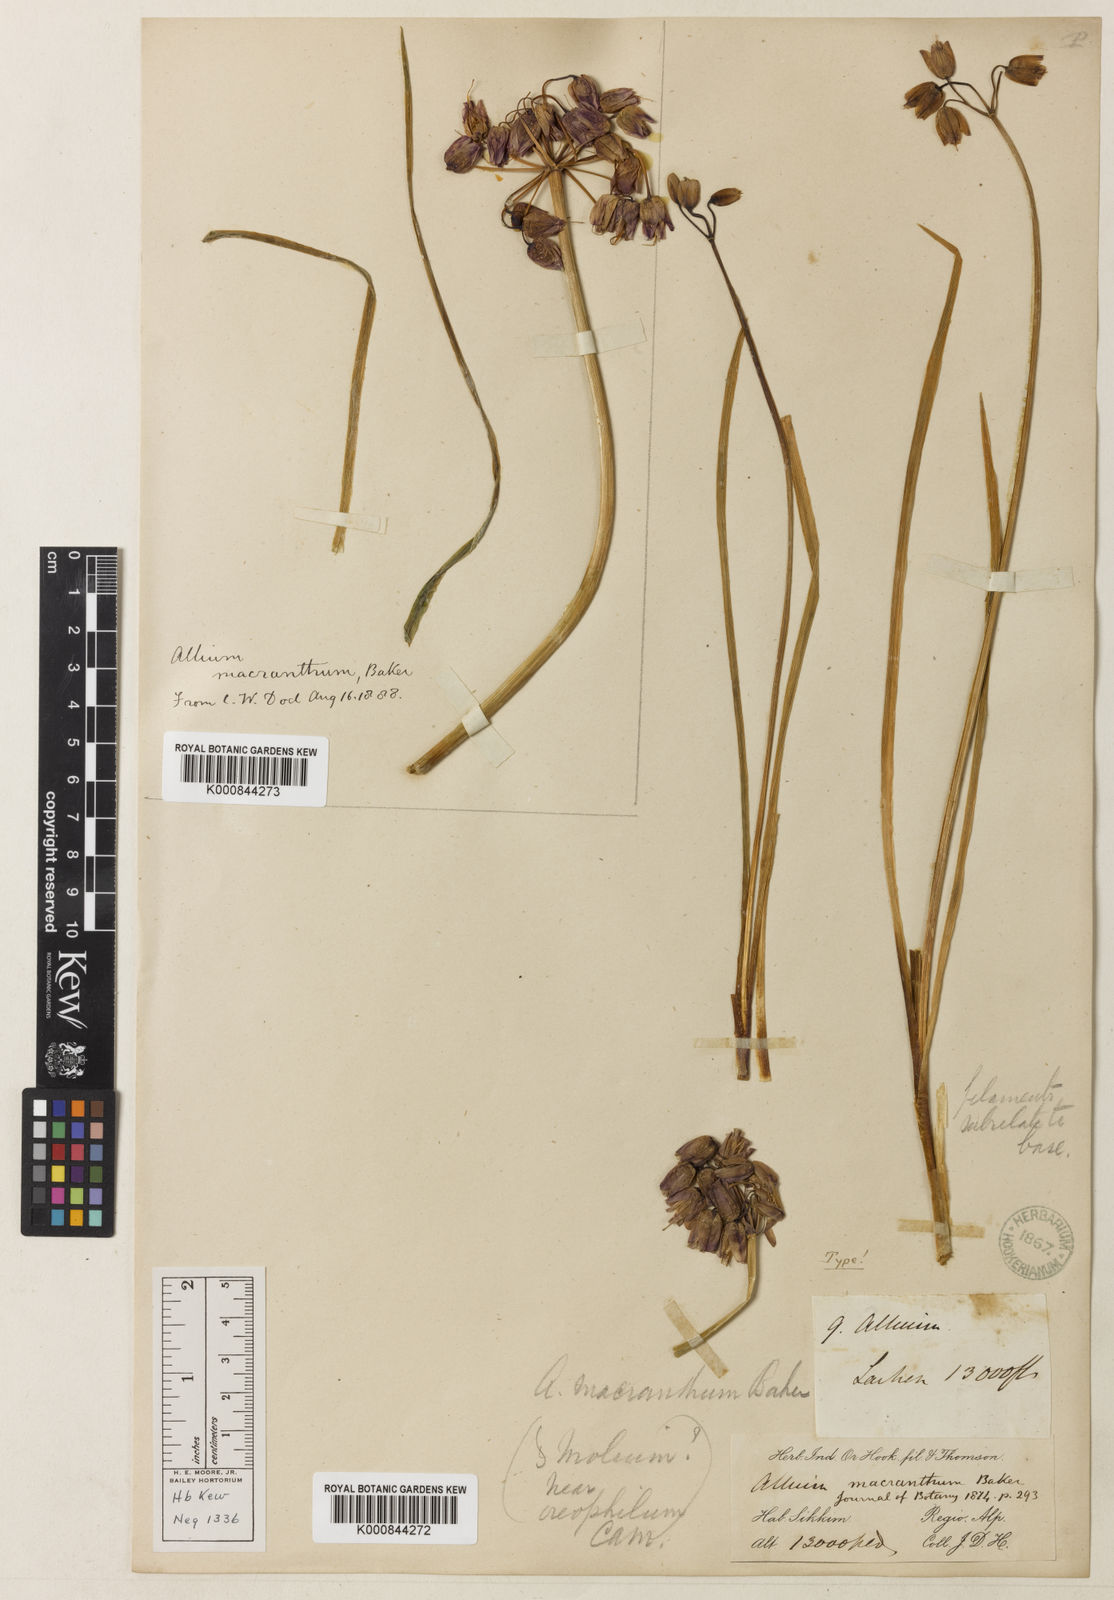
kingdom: Plantae
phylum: Tracheophyta
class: Liliopsida
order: Asparagales
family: Amaryllidaceae
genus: Allium
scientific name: Allium macranthum
